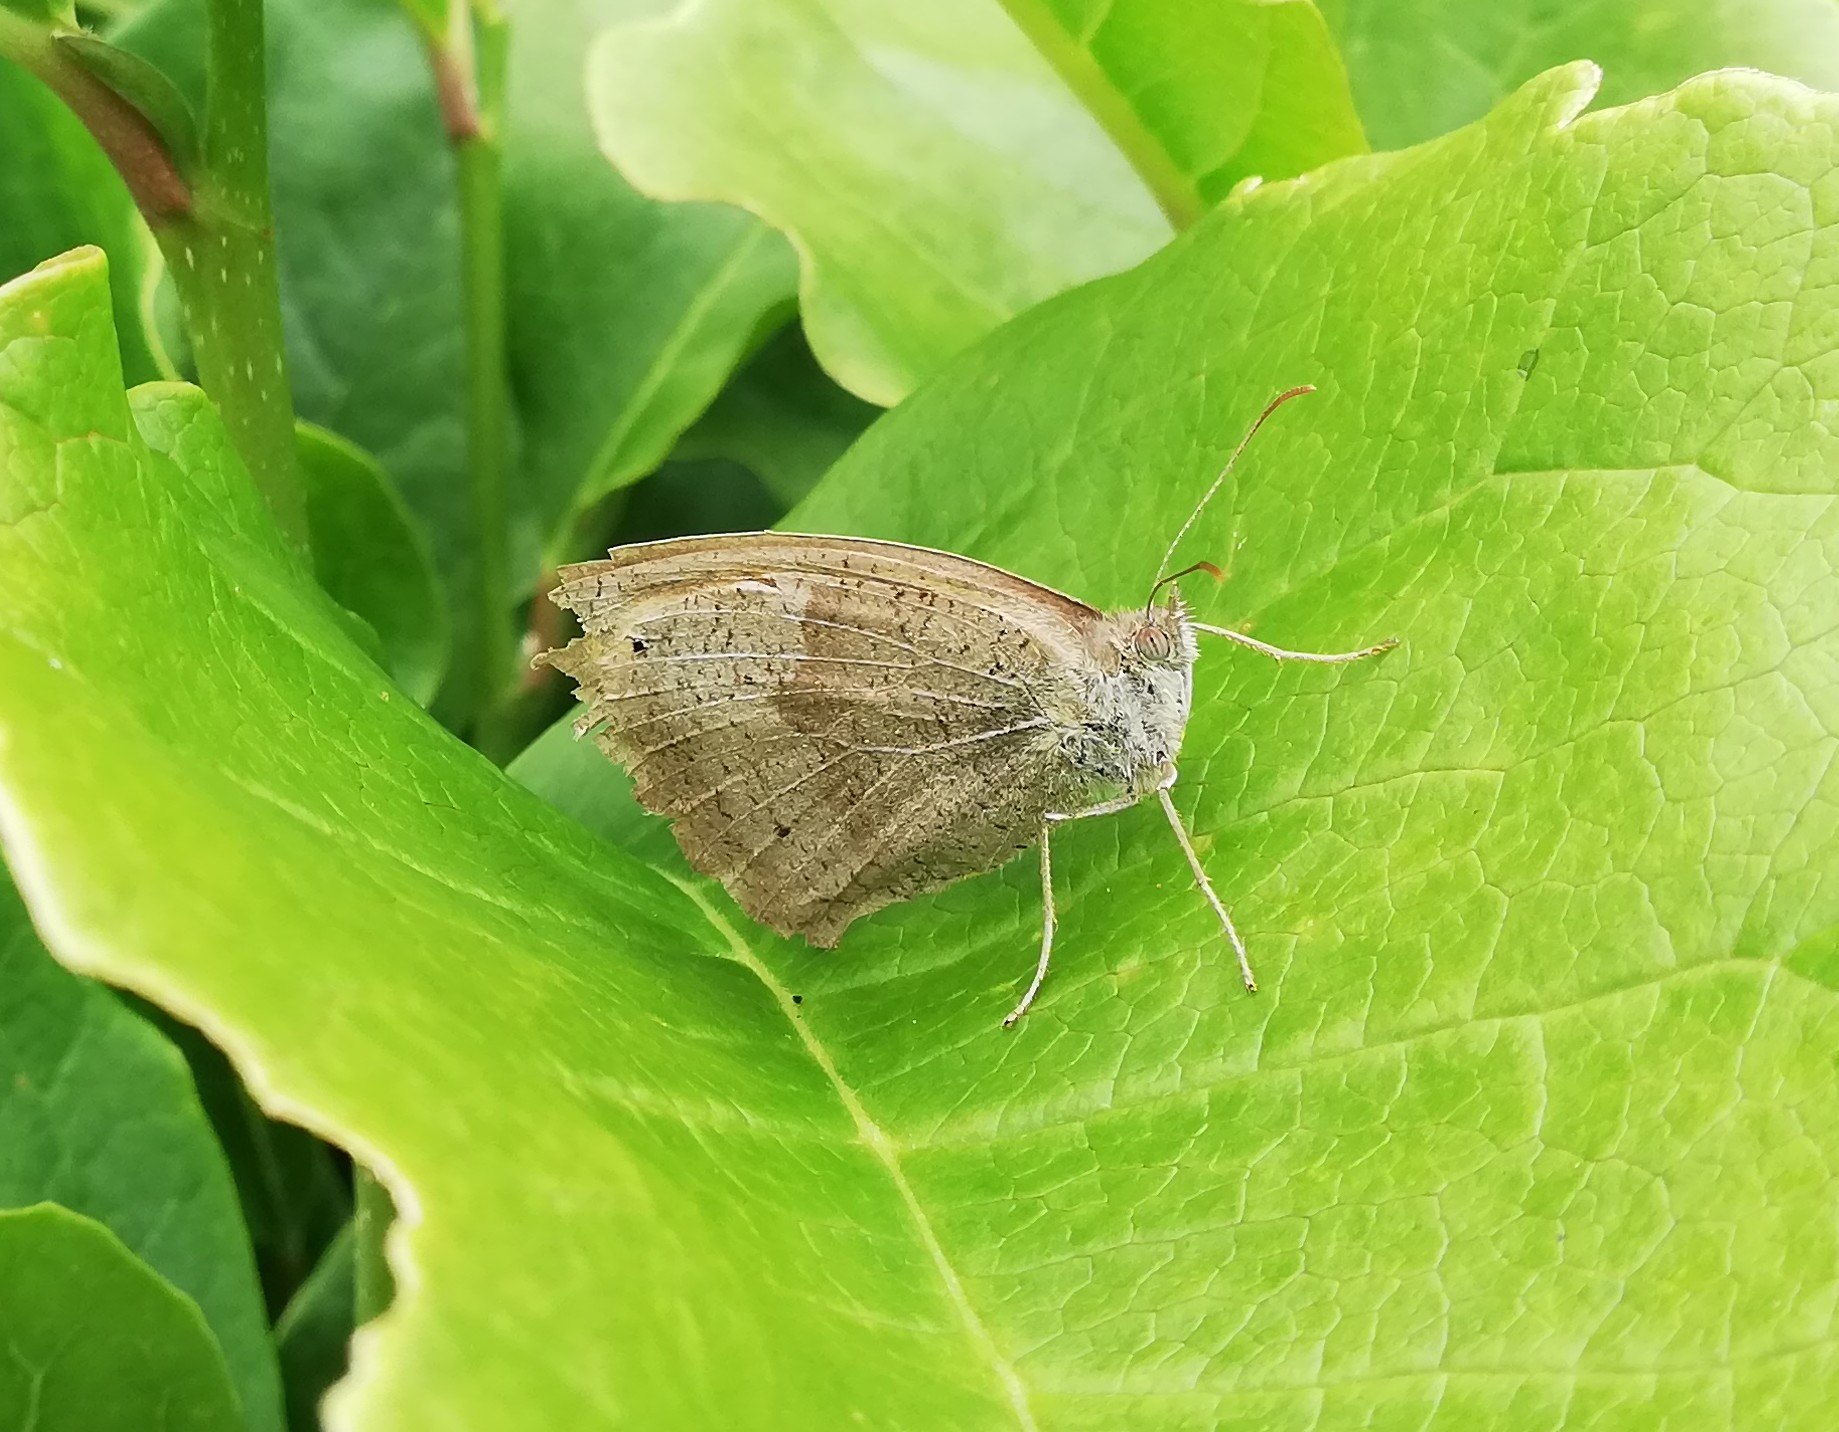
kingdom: Animalia
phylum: Arthropoda
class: Insecta
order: Lepidoptera
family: Nymphalidae
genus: Maniola
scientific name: Maniola jurtina
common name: Græsrandøje
